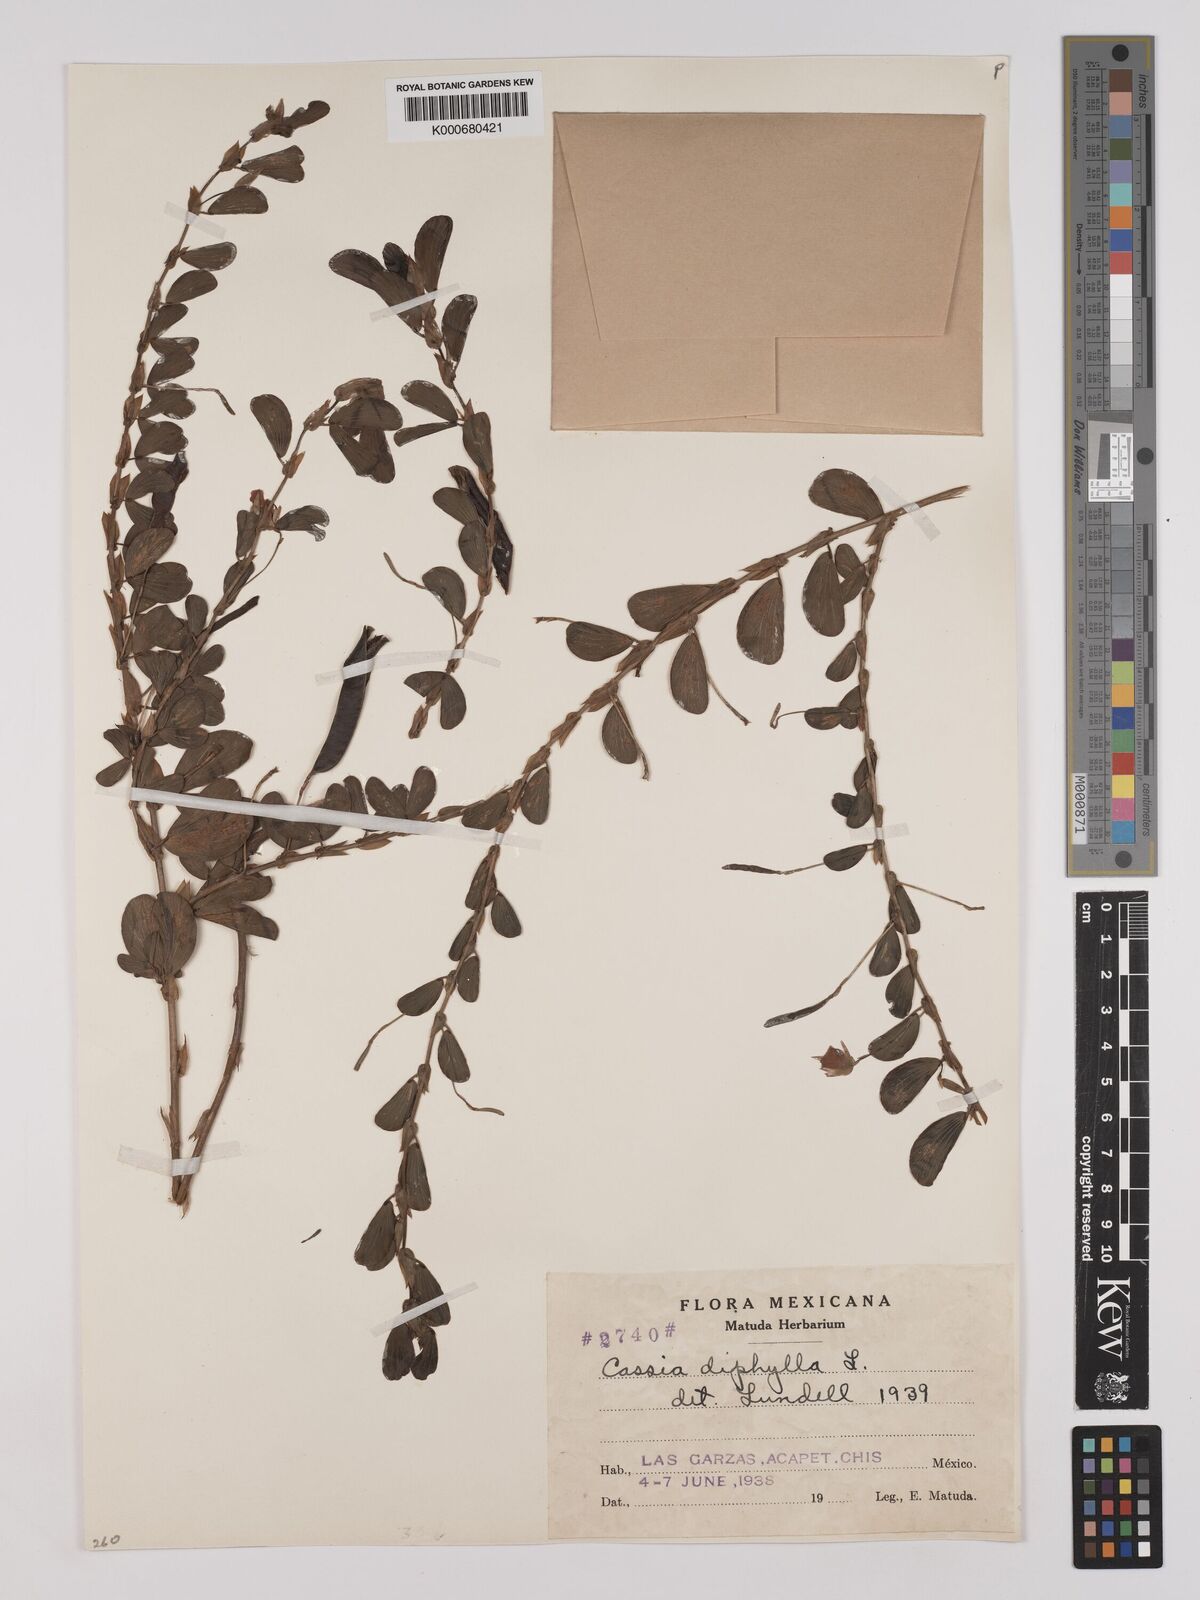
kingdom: Plantae
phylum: Tracheophyta
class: Magnoliopsida
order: Fabales
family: Fabaceae
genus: Chamaecrista
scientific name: Chamaecrista diphylla
